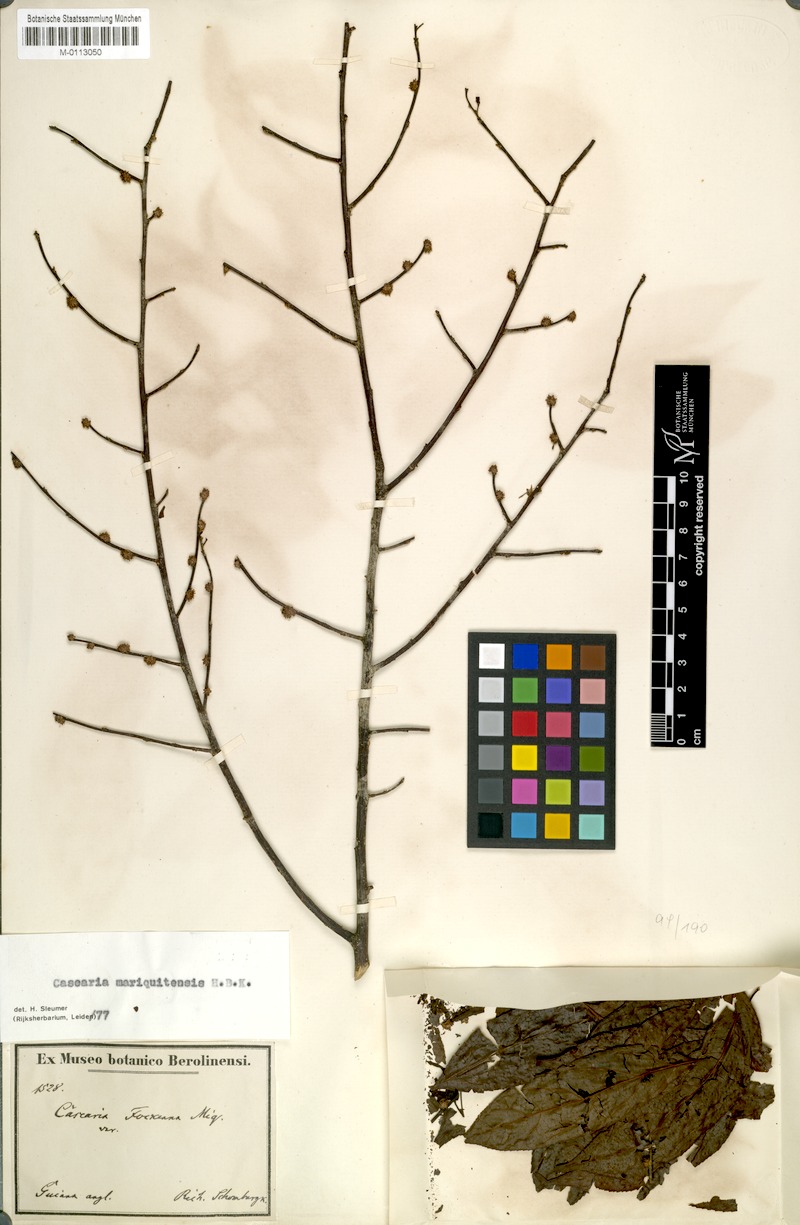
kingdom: Plantae
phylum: Tracheophyta
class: Magnoliopsida
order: Malpighiales
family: Salicaceae
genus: Casearia
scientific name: Casearia mariquitensis
